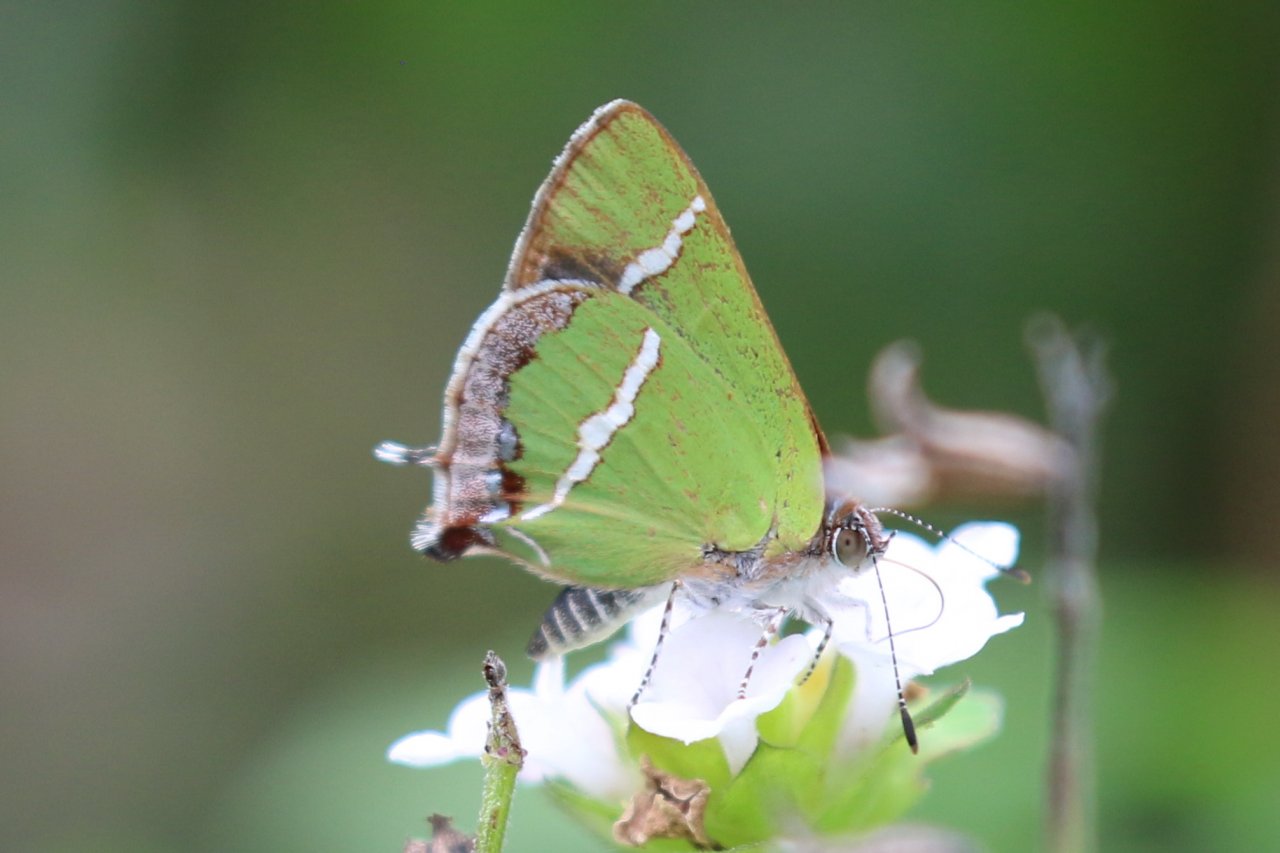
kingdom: Animalia
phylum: Arthropoda
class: Insecta
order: Lepidoptera
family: Lycaenidae
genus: Chlorostrymon
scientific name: Chlorostrymon simaethis
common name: Silver-banded Hairstreak
